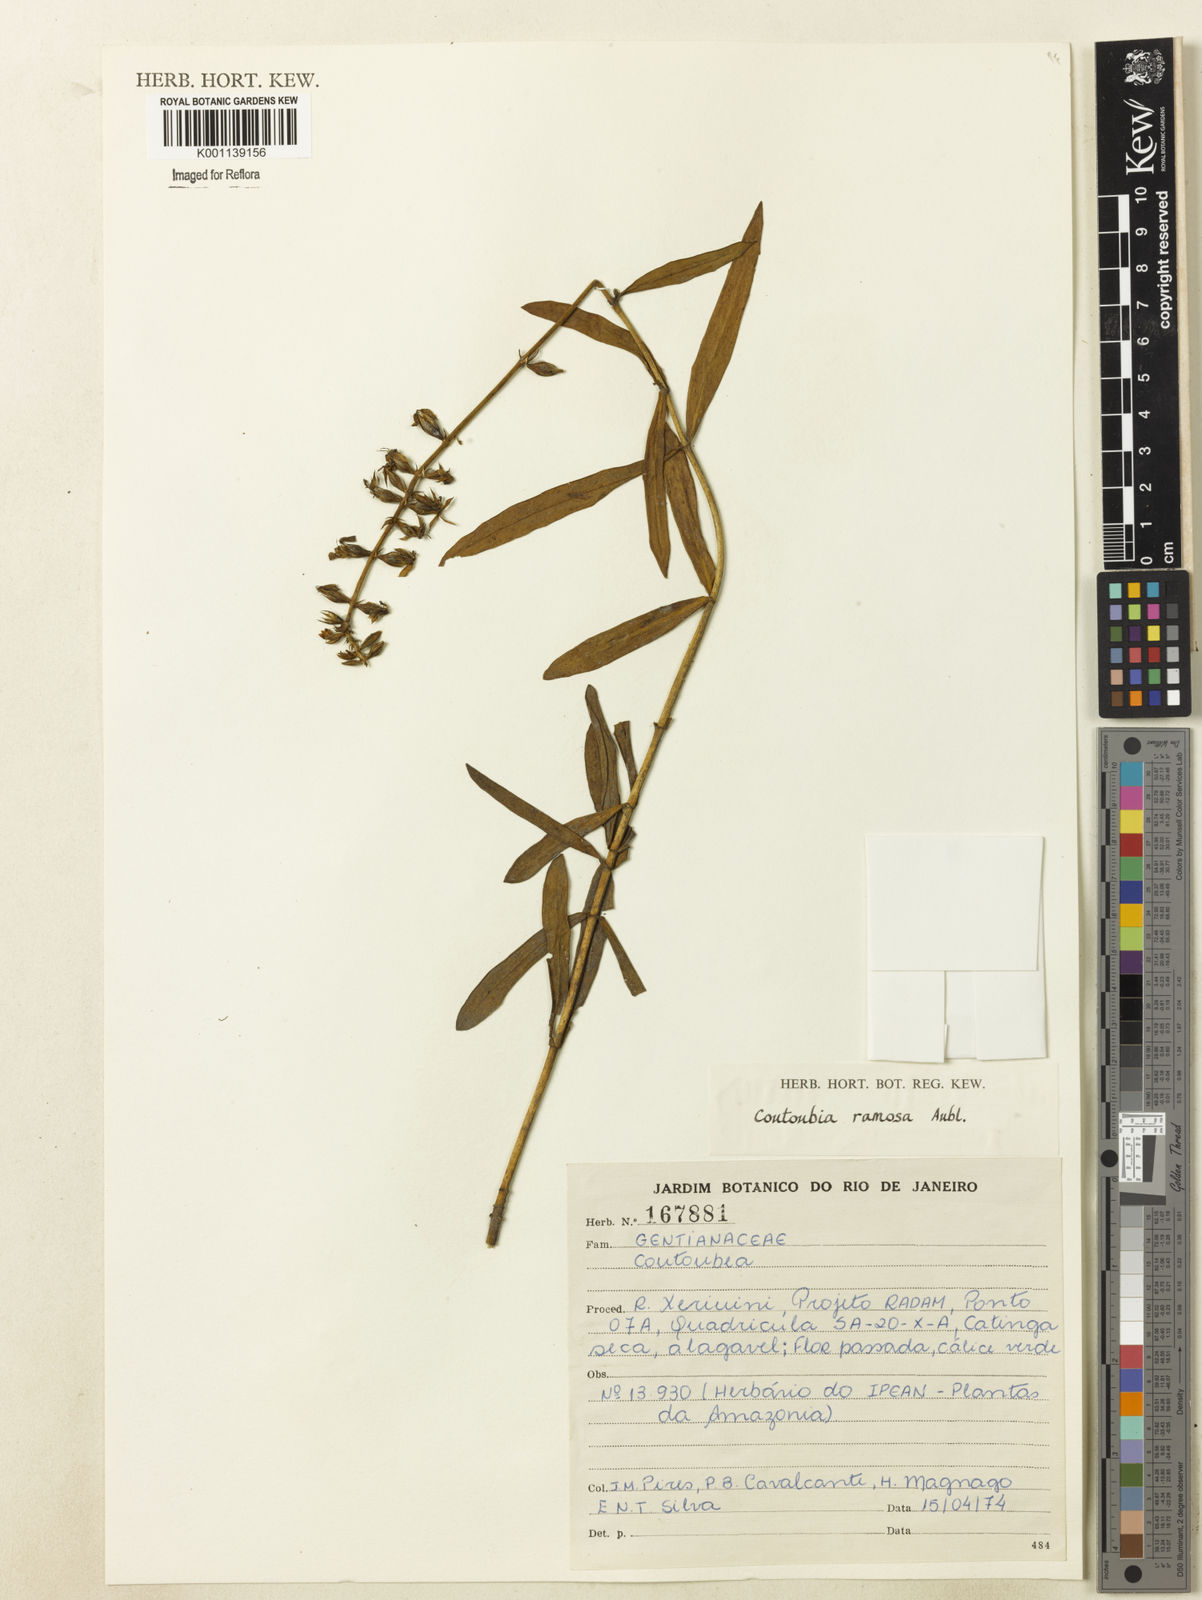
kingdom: Plantae
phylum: Tracheophyta
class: Magnoliopsida
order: Gentianales
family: Gentianaceae
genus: Coutoubea
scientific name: Coutoubea ramosa
